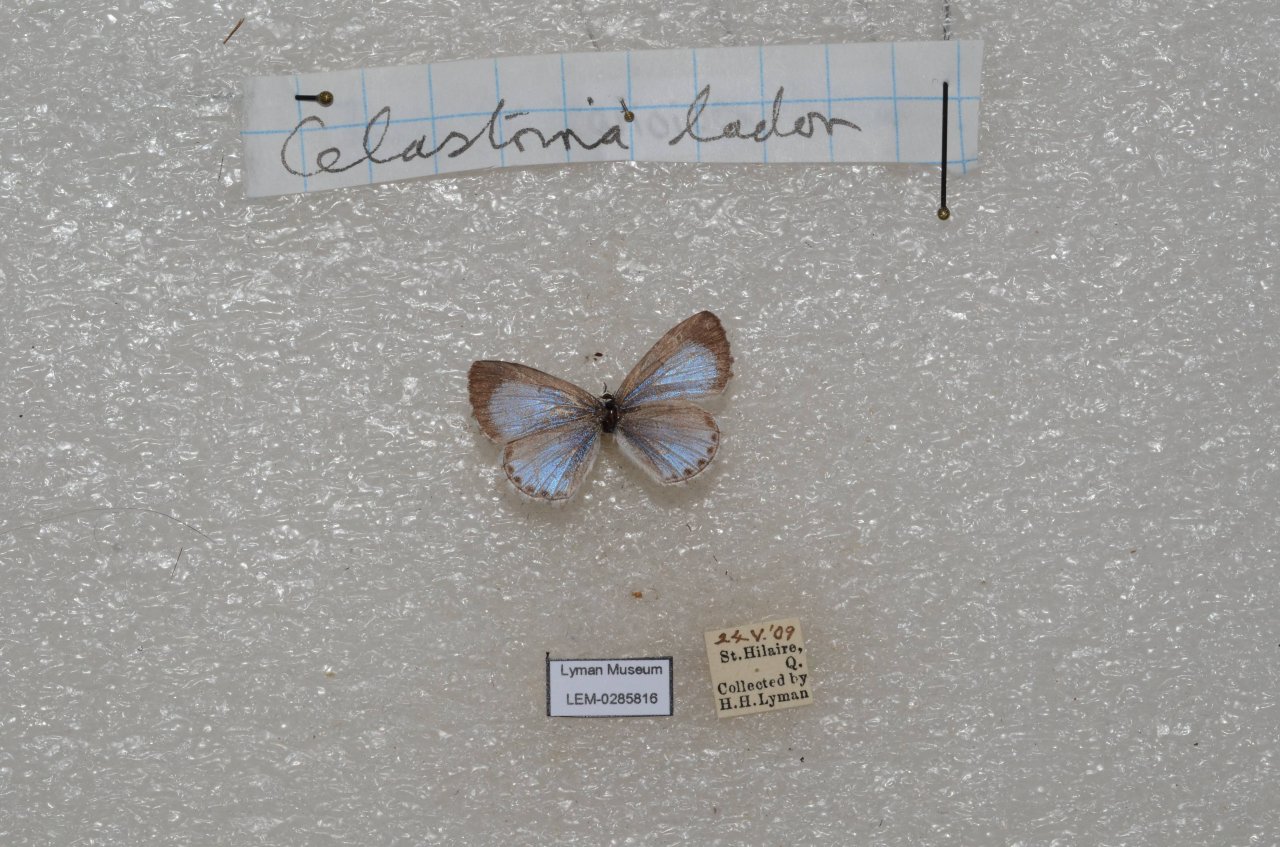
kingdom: Animalia
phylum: Arthropoda
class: Insecta
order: Lepidoptera
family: Lycaenidae
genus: Celastrina
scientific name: Celastrina lucia
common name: Northern Spring Azure
